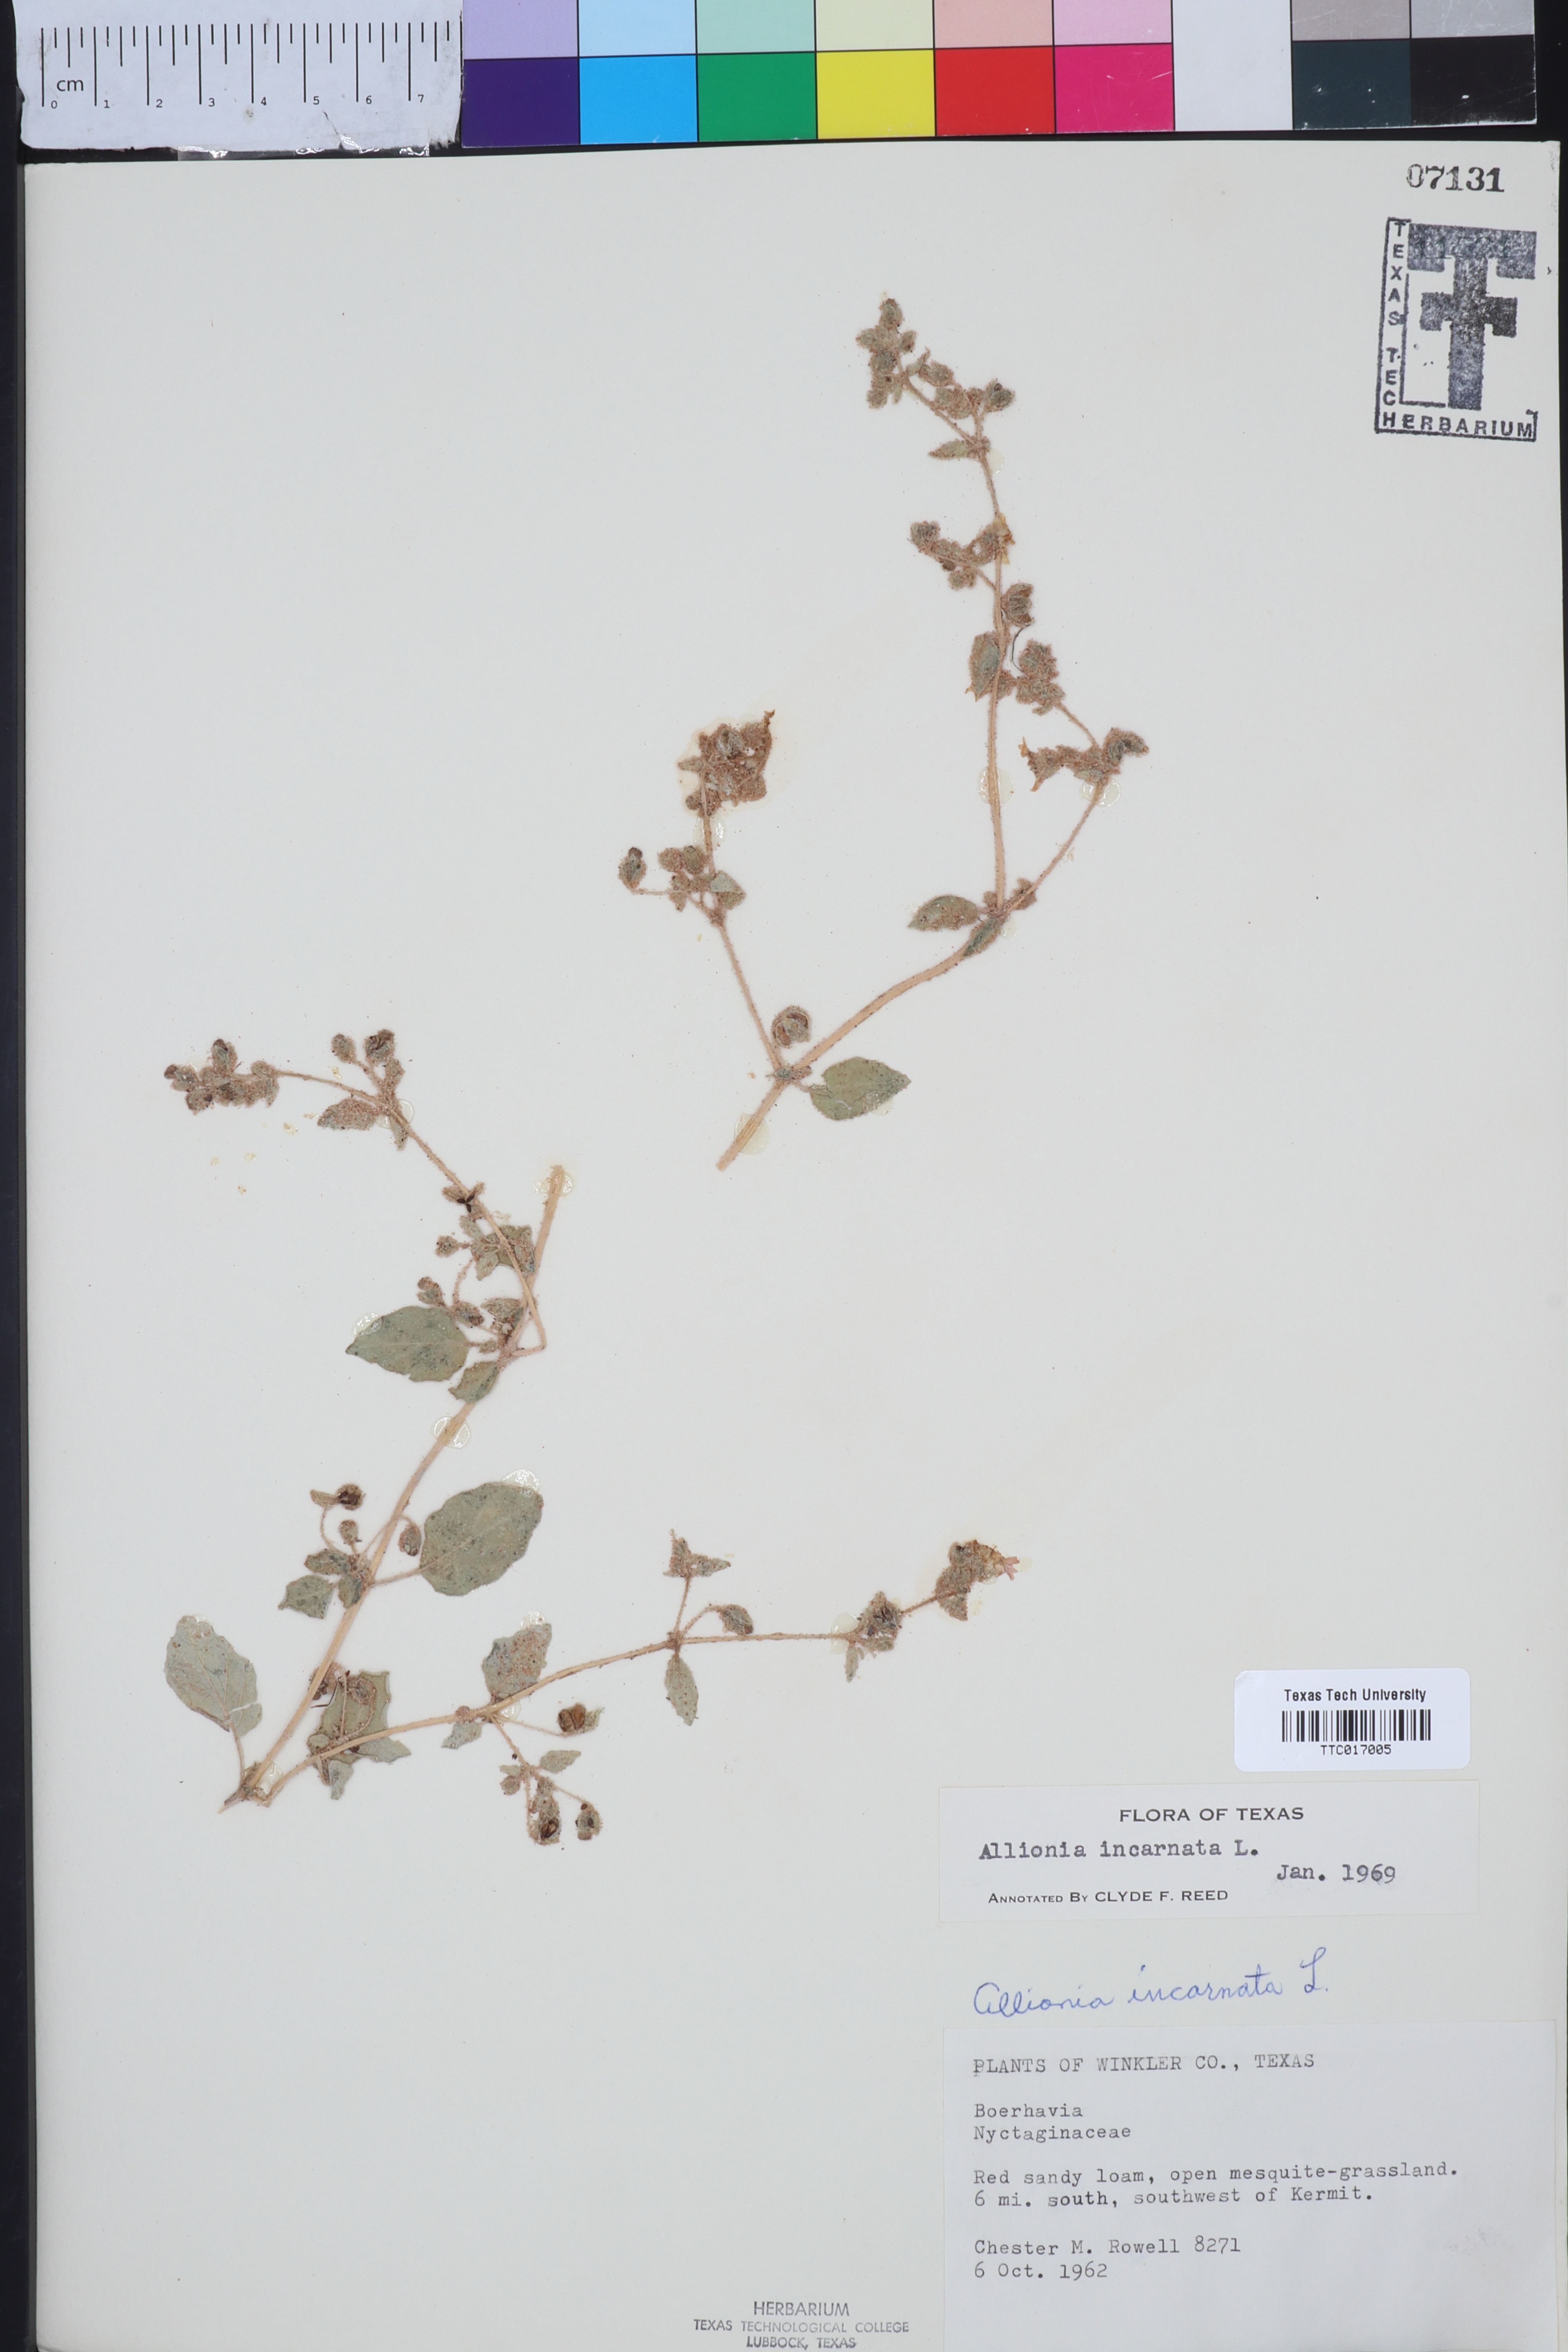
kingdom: Plantae
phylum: Tracheophyta
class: Magnoliopsida
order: Caryophyllales
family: Nyctaginaceae
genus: Allionia
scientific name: Allionia incarnata
